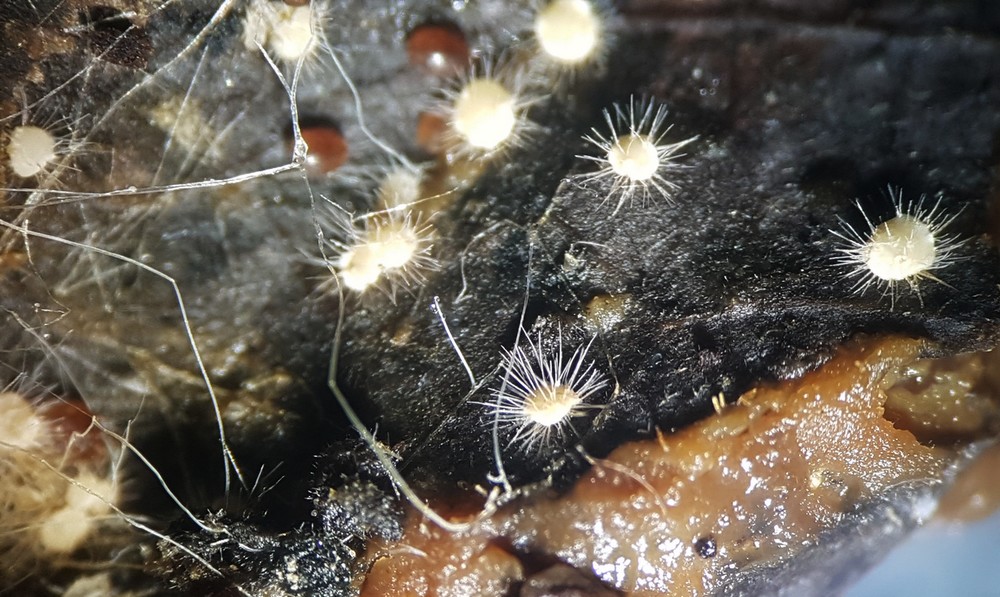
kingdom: Fungi
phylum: Ascomycota
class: Sordariomycetes
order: Hypocreales
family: Nectriaceae
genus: Scolecofusarium
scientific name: Scolecofusarium ciliatum
